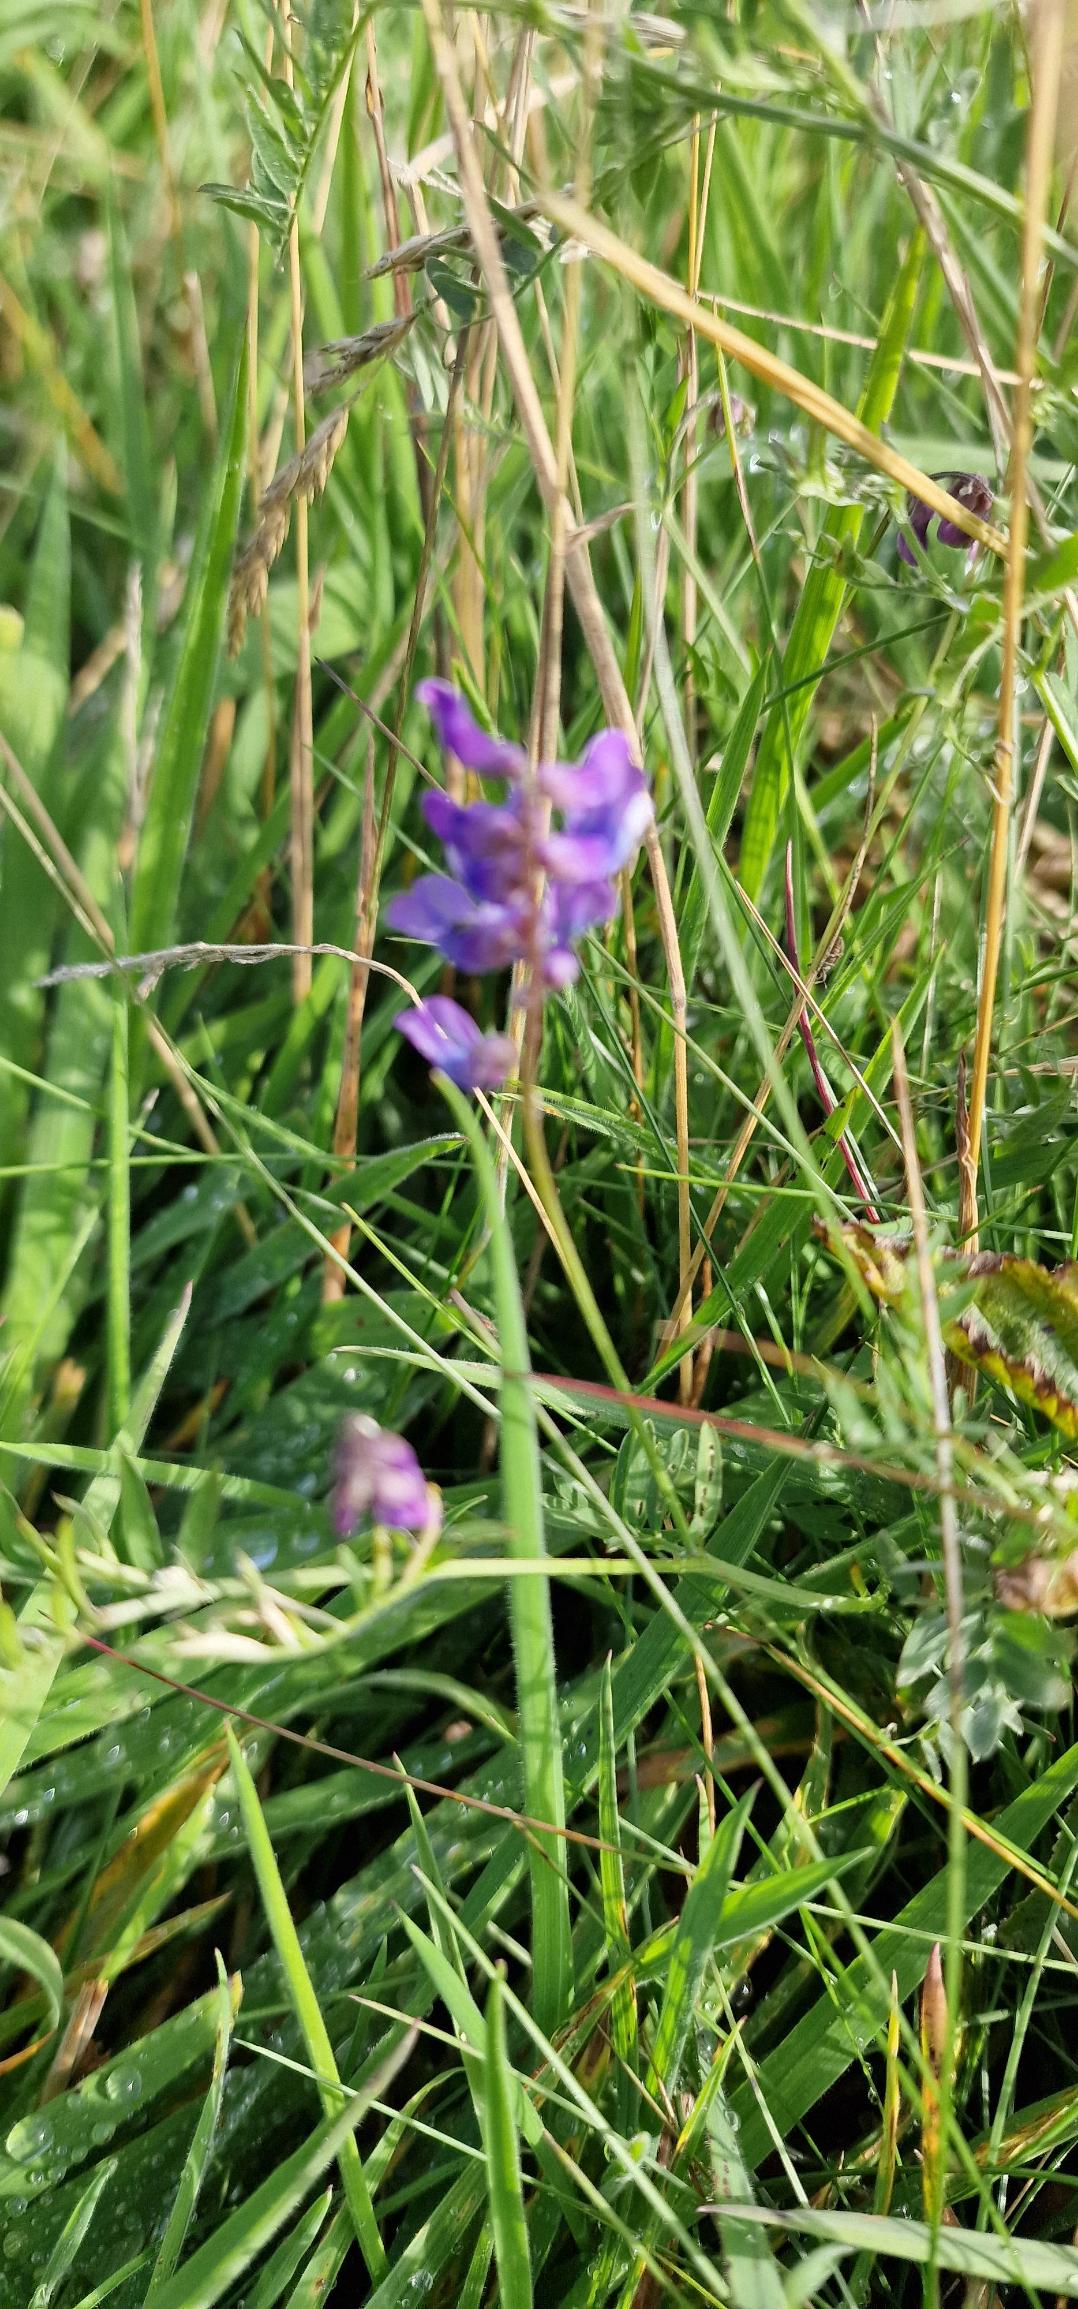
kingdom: Plantae
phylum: Tracheophyta
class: Magnoliopsida
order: Fabales
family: Fabaceae
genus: Vicia
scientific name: Vicia cracca
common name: Muse-vikke
